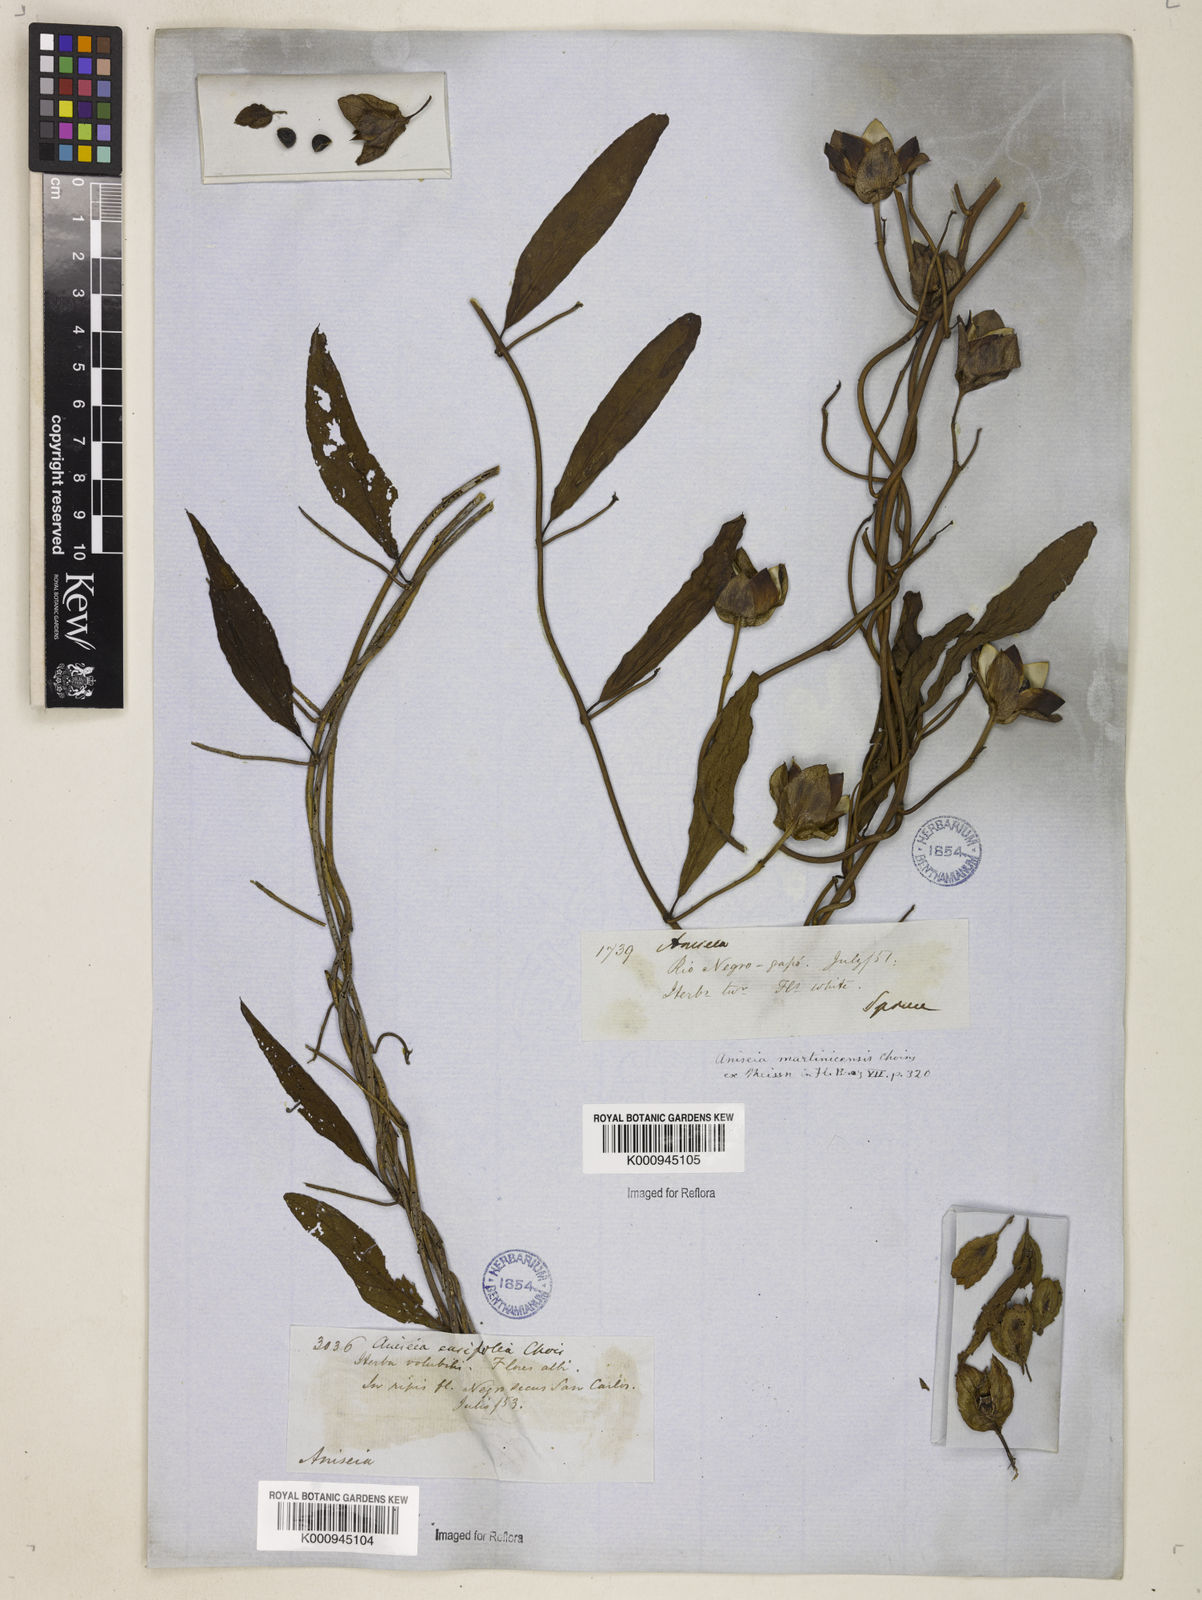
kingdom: Plantae
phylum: Tracheophyta
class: Magnoliopsida
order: Solanales
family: Convolvulaceae
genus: Aniseia
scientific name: Aniseia martinicensis
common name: Kulayadambu
